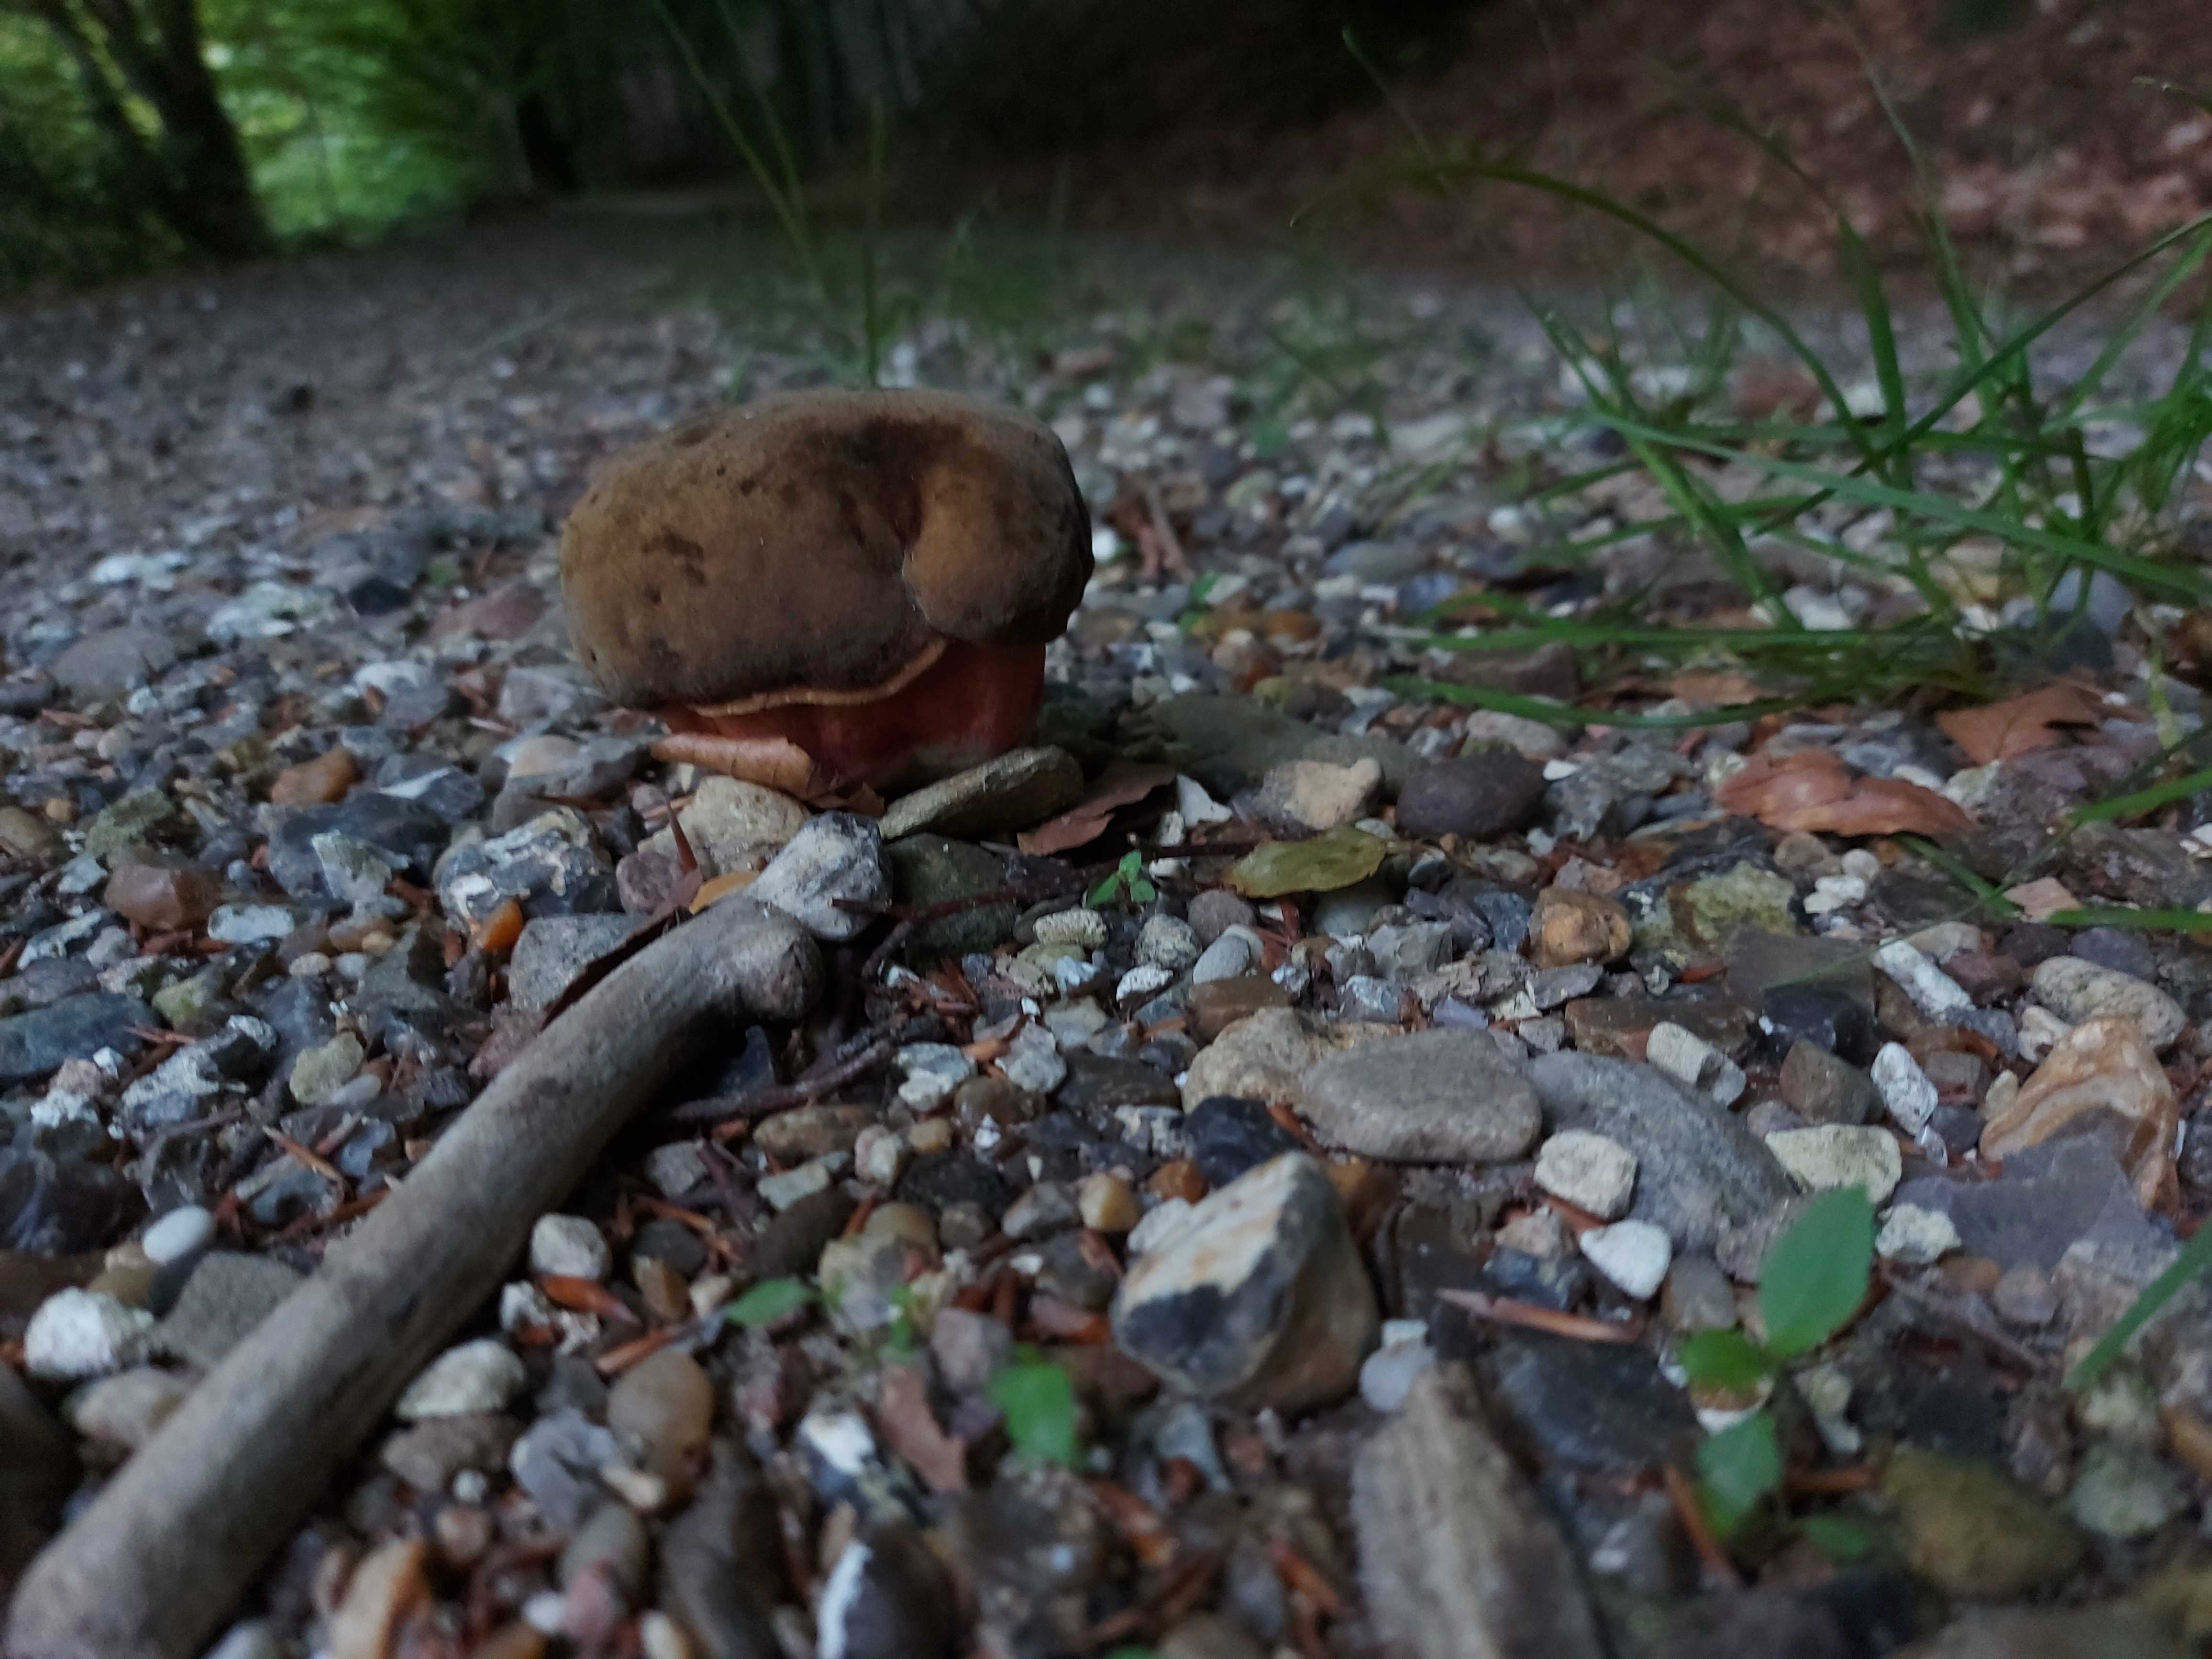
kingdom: Fungi
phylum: Basidiomycota
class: Agaricomycetes
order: Boletales
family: Boletaceae
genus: Neoboletus
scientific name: Neoboletus erythropus
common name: punktstokket indigorørhat
